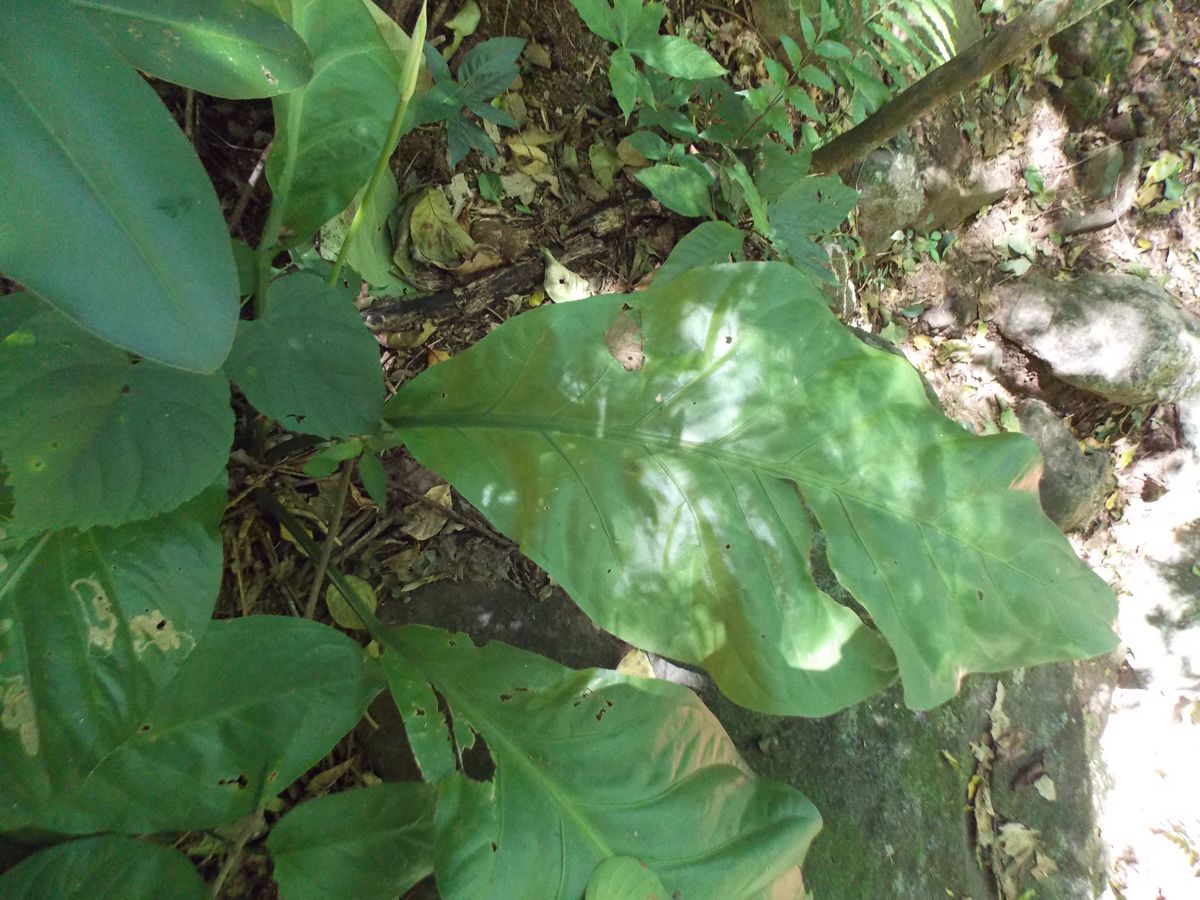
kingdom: Plantae
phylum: Tracheophyta
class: Liliopsida
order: Alismatales
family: Araceae
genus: Anthurium
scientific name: Anthurium salvadorense
